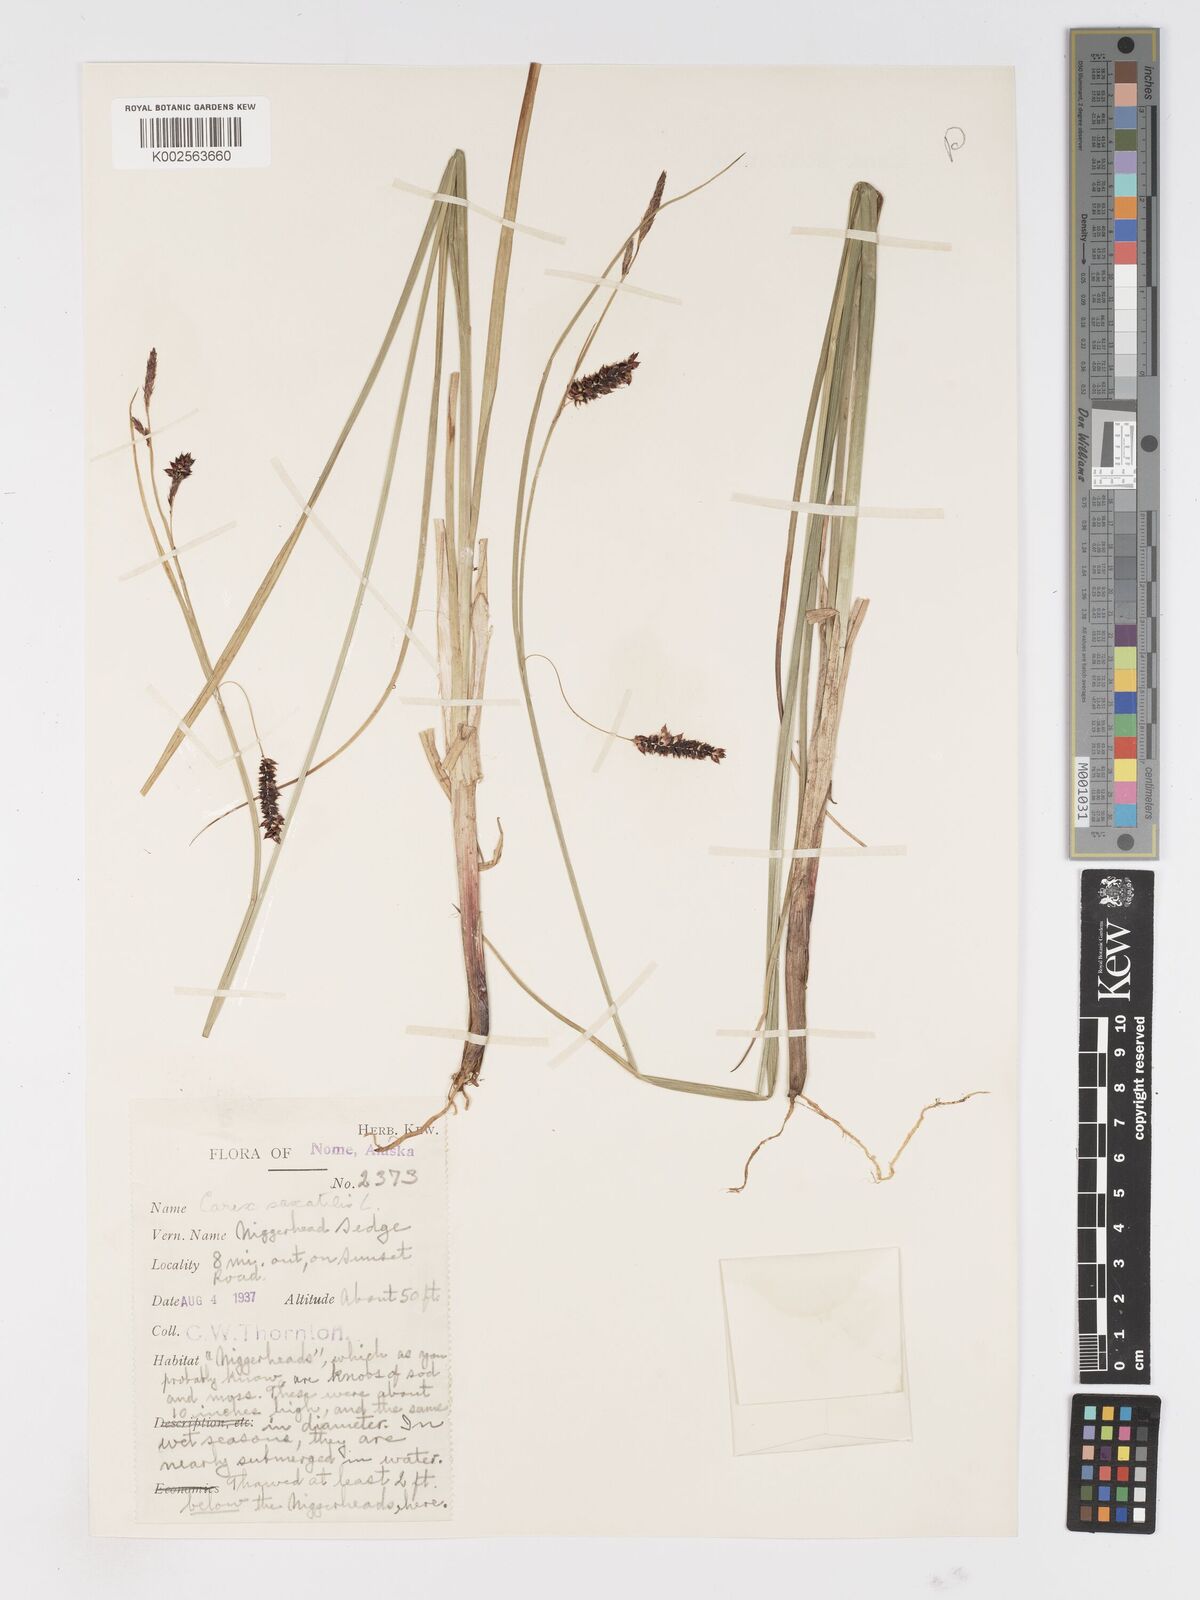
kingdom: Plantae
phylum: Tracheophyta
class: Liliopsida
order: Poales
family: Cyperaceae
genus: Carex
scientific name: Carex saxatilis
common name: Russet sedge
